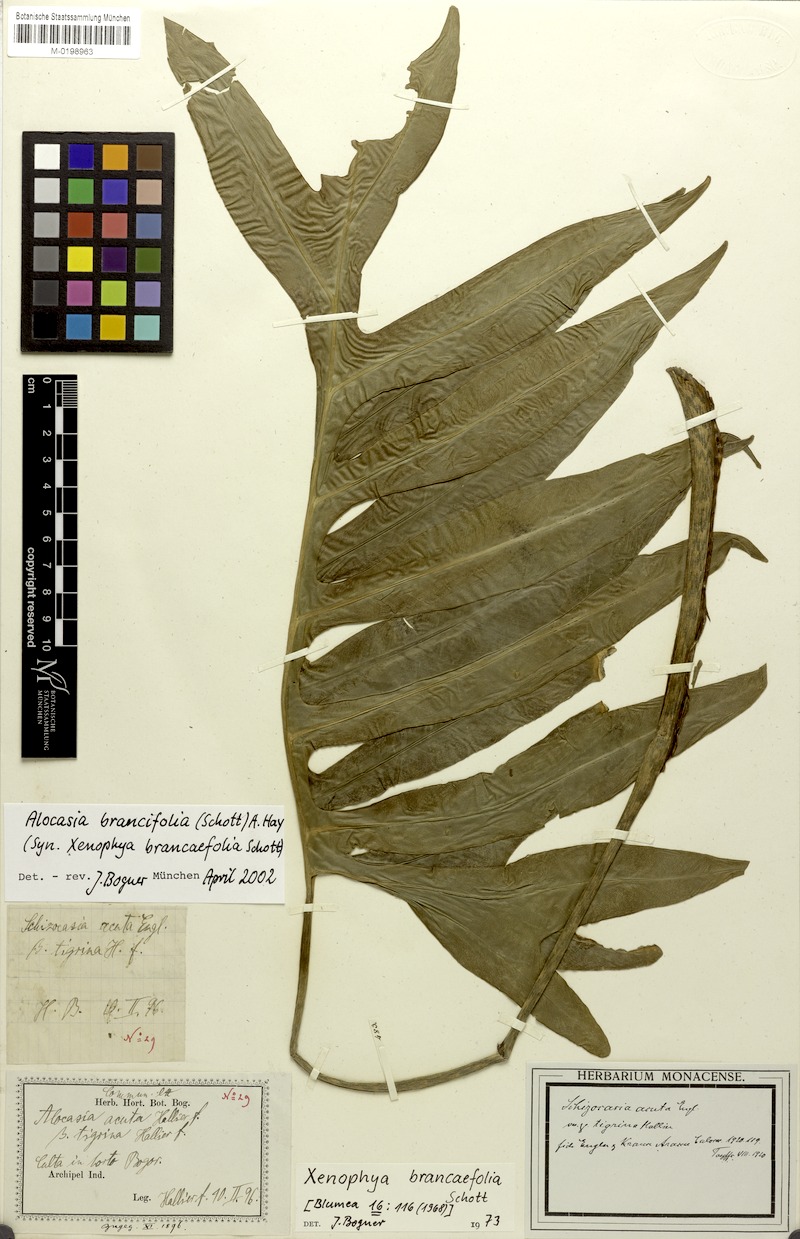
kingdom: Plantae
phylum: Tracheophyta
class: Liliopsida
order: Alismatales
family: Araceae
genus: Alocasia
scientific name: Alocasia brancifolia
